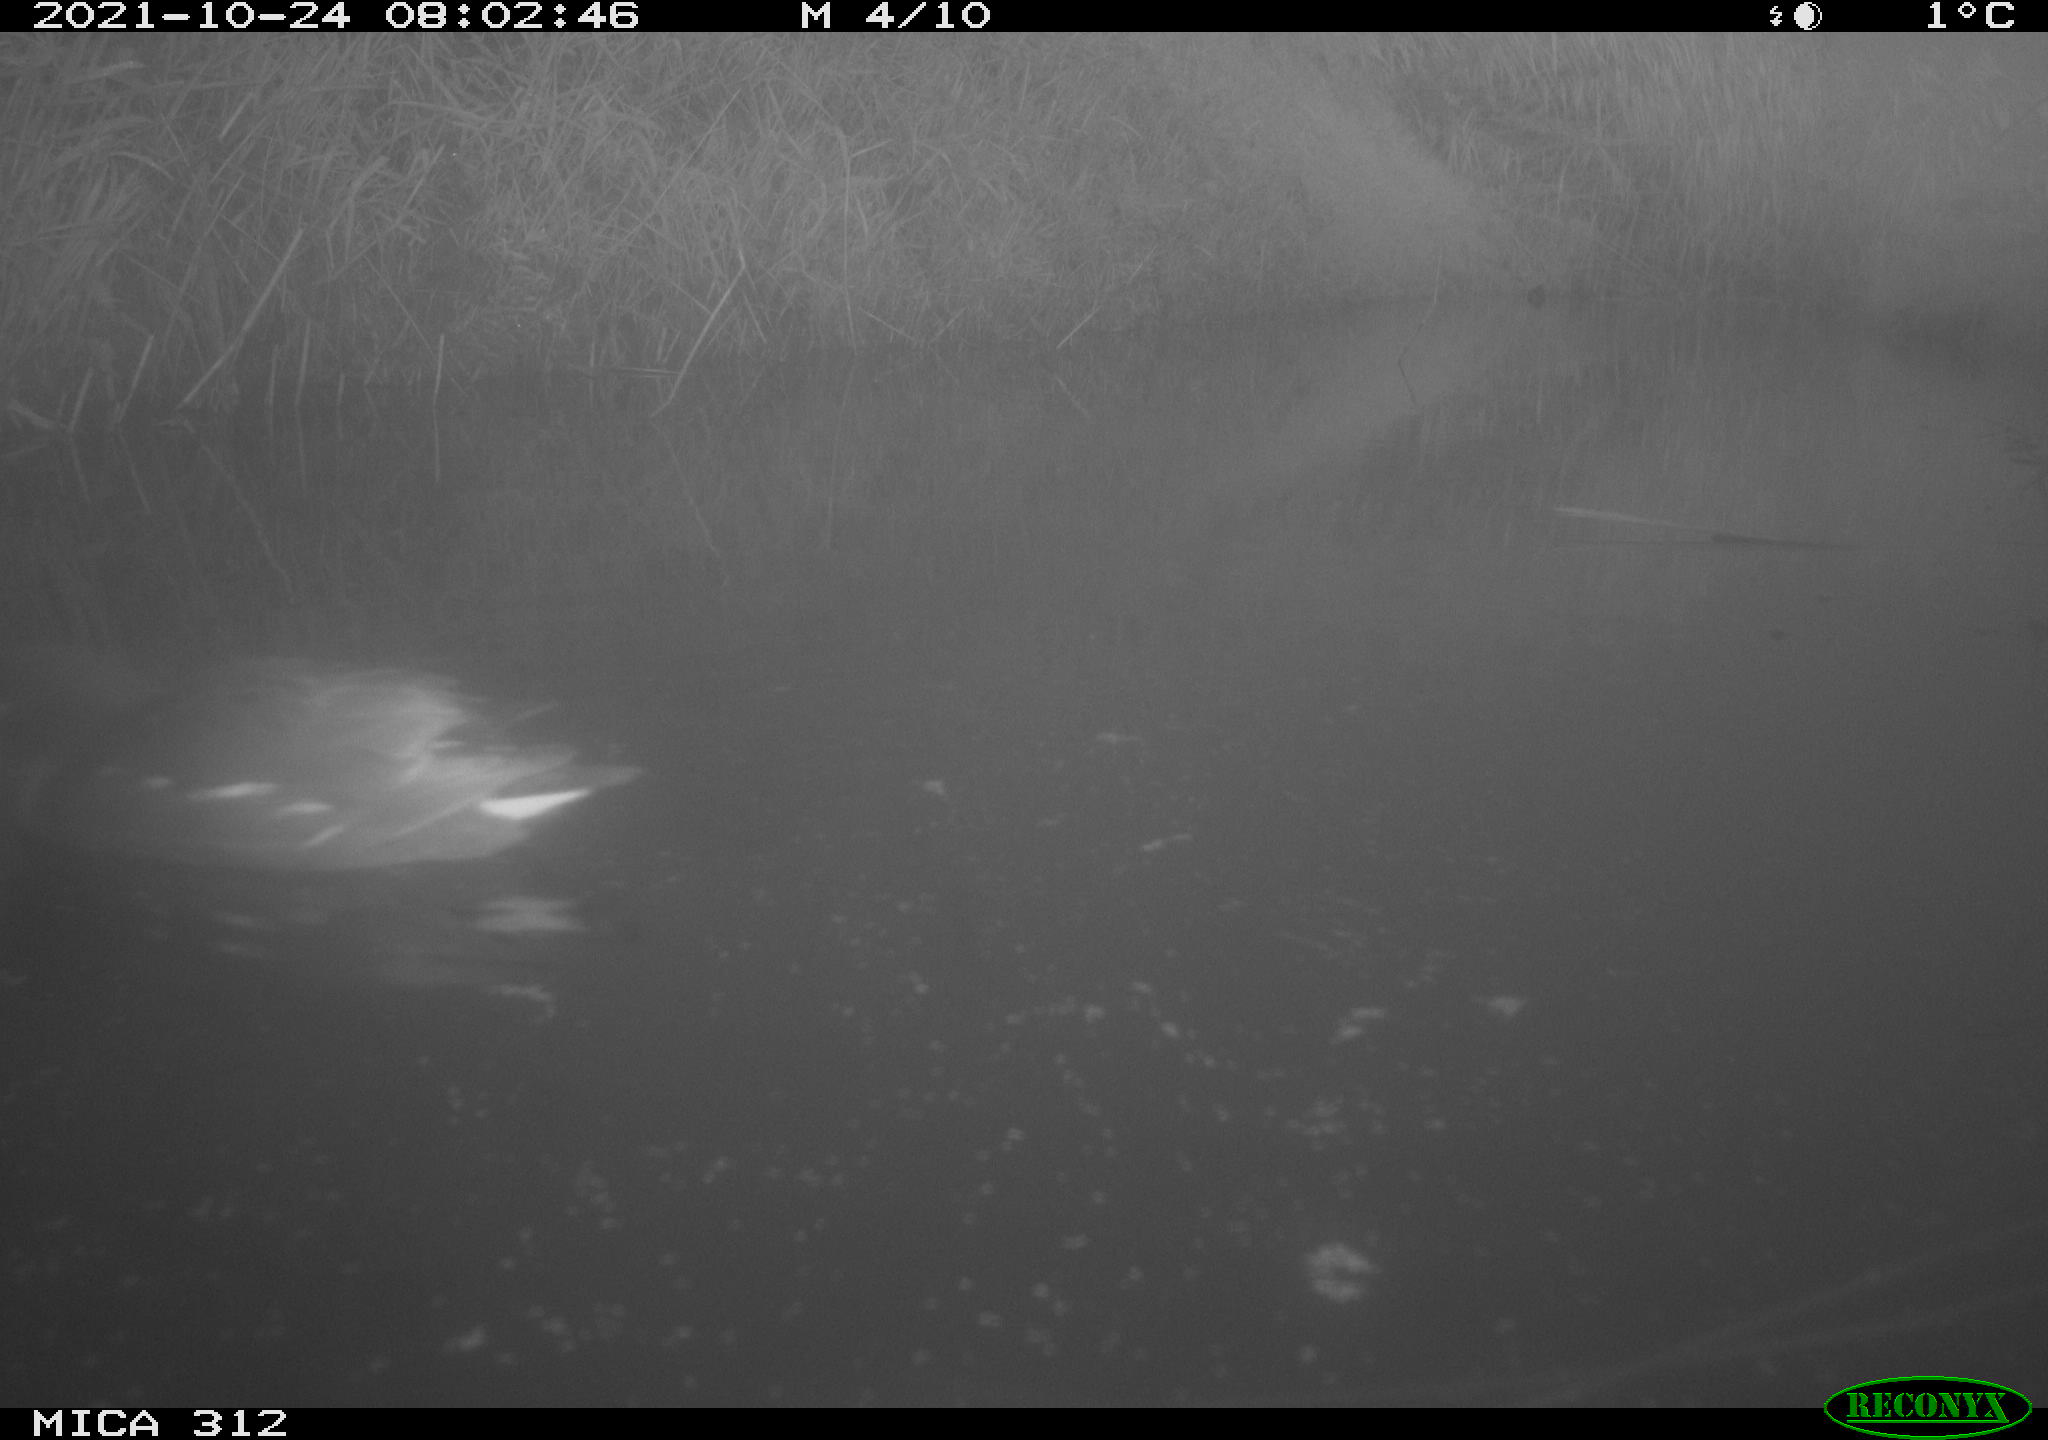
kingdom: Animalia
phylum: Chordata
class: Aves
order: Gruiformes
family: Rallidae
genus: Gallinula
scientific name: Gallinula chloropus
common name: Common moorhen
